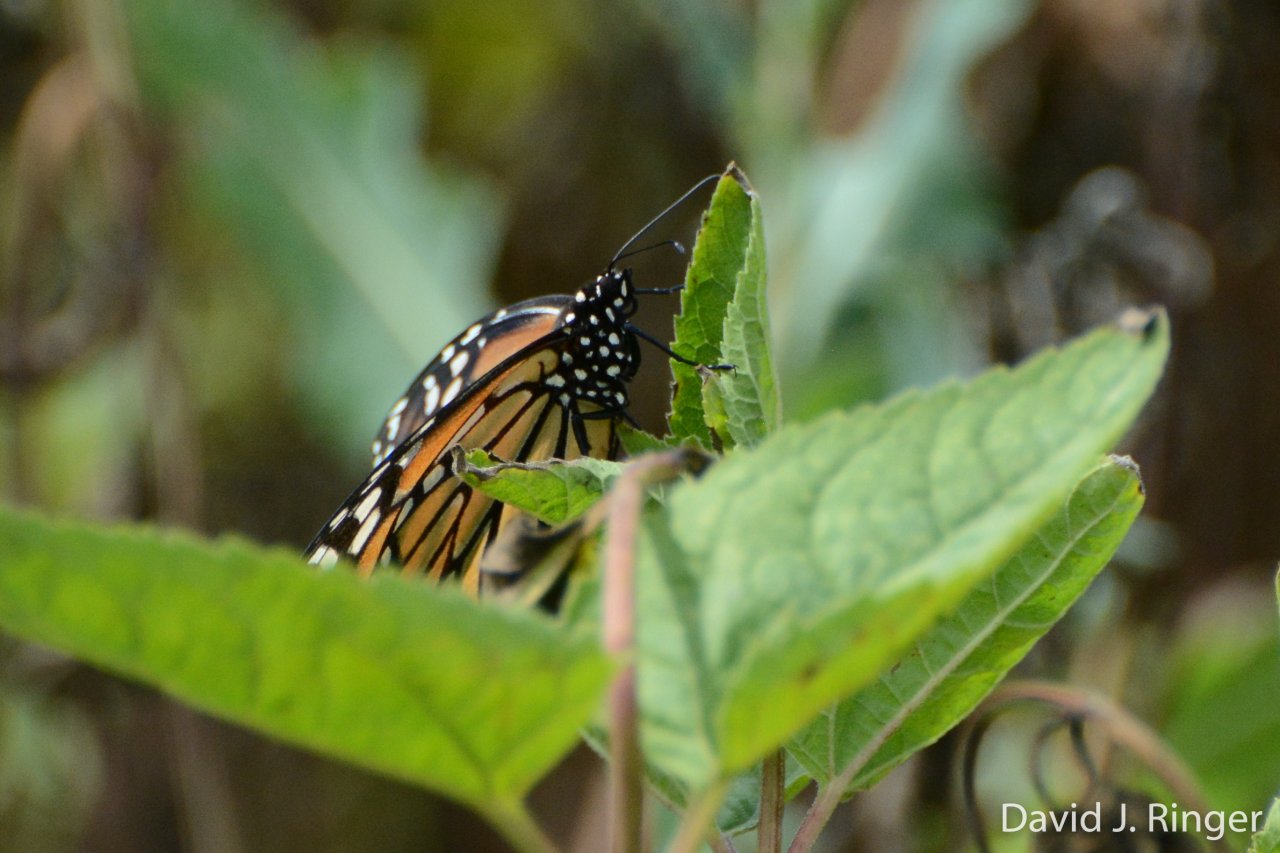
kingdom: Animalia
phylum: Arthropoda
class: Insecta
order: Lepidoptera
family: Nymphalidae
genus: Danaus
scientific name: Danaus plexippus
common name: Monarch
